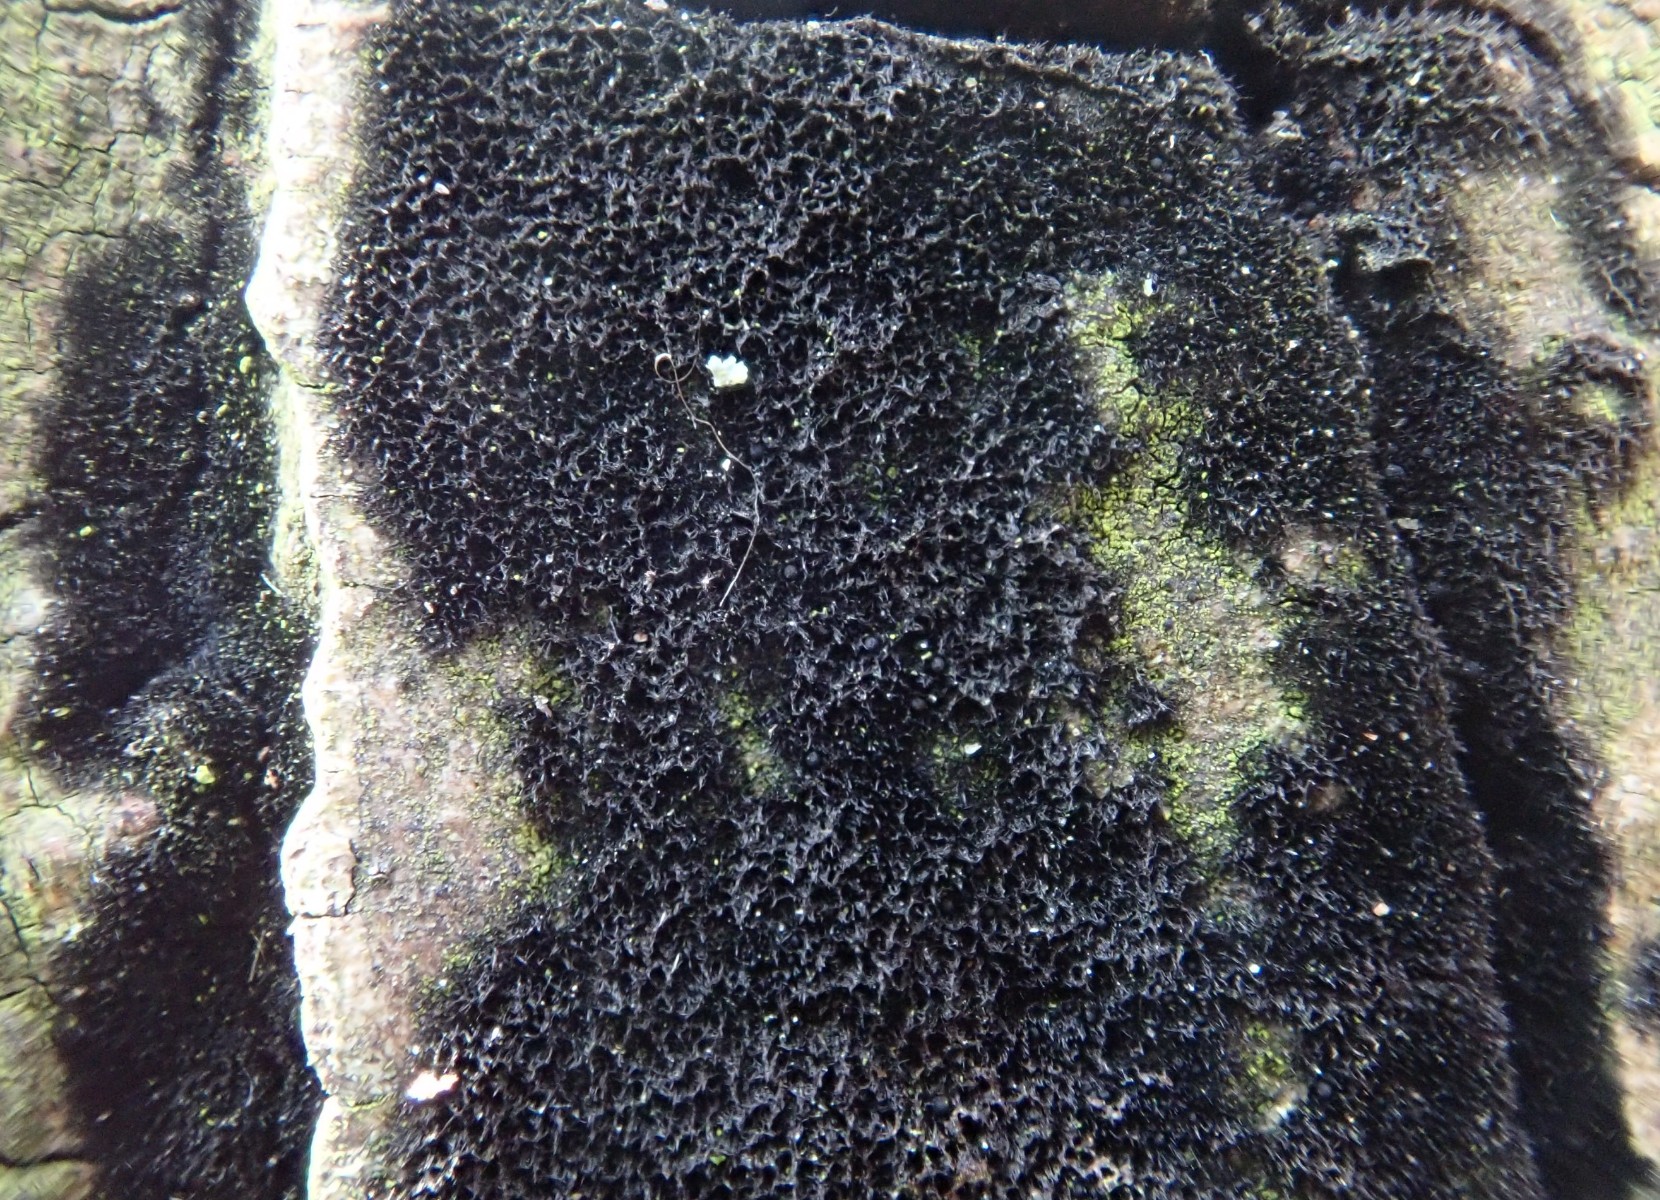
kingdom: Fungi
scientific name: Fungi
